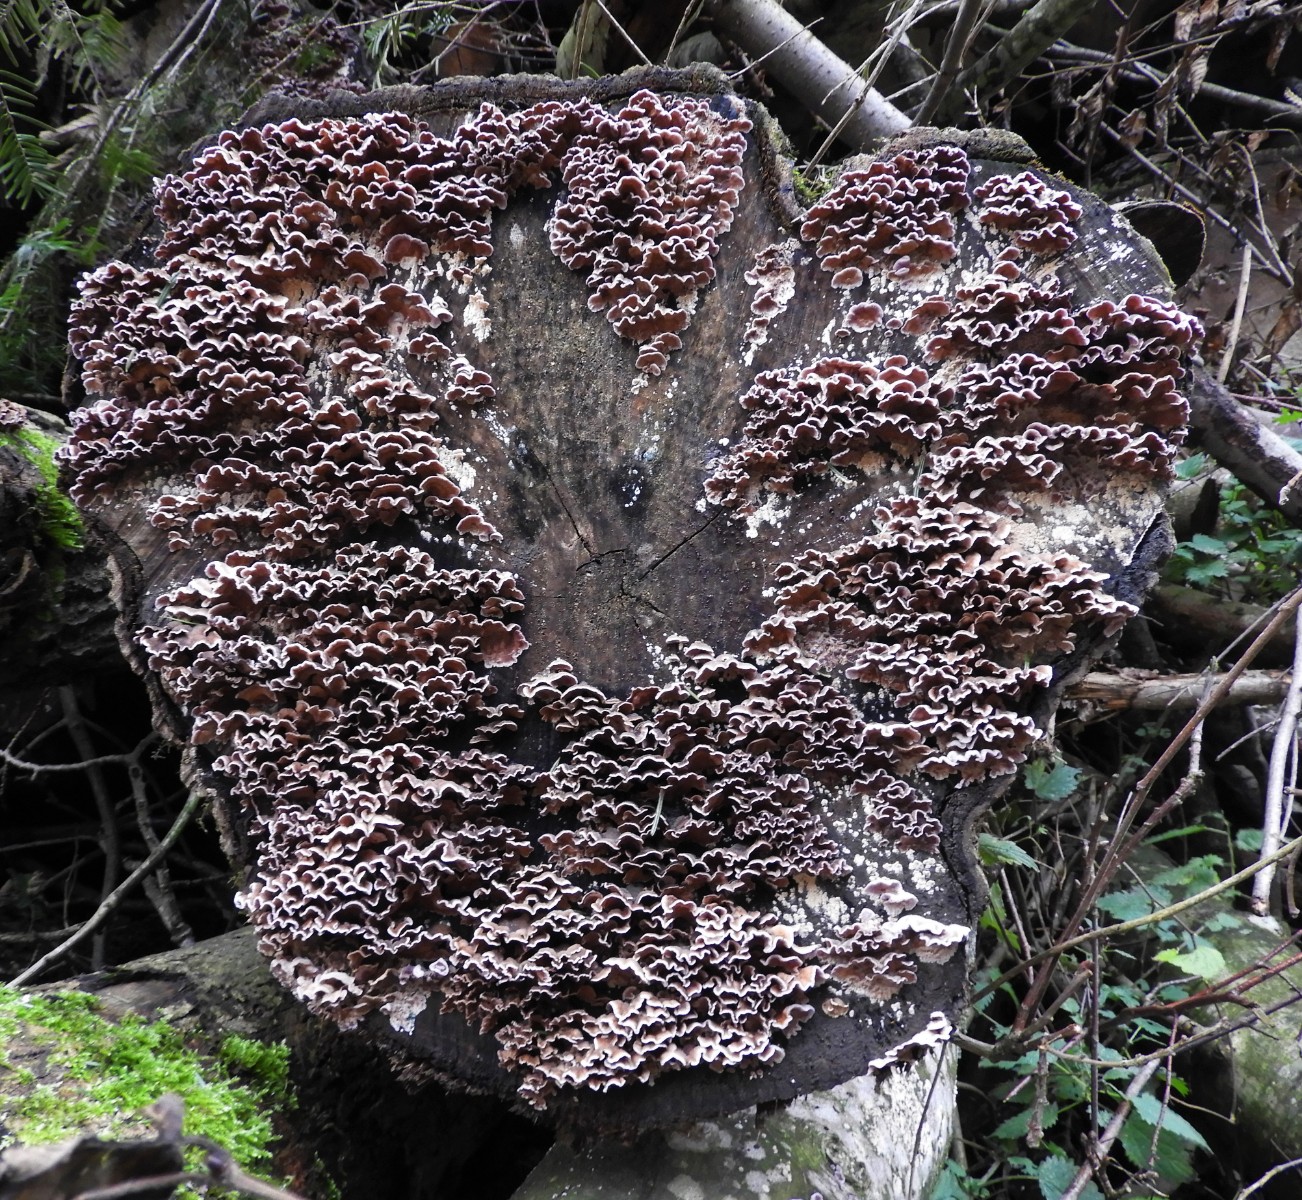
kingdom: Fungi
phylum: Basidiomycota
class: Agaricomycetes
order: Agaricales
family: Cyphellaceae
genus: Chondrostereum
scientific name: Chondrostereum purpureum
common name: purpurlædersvamp
